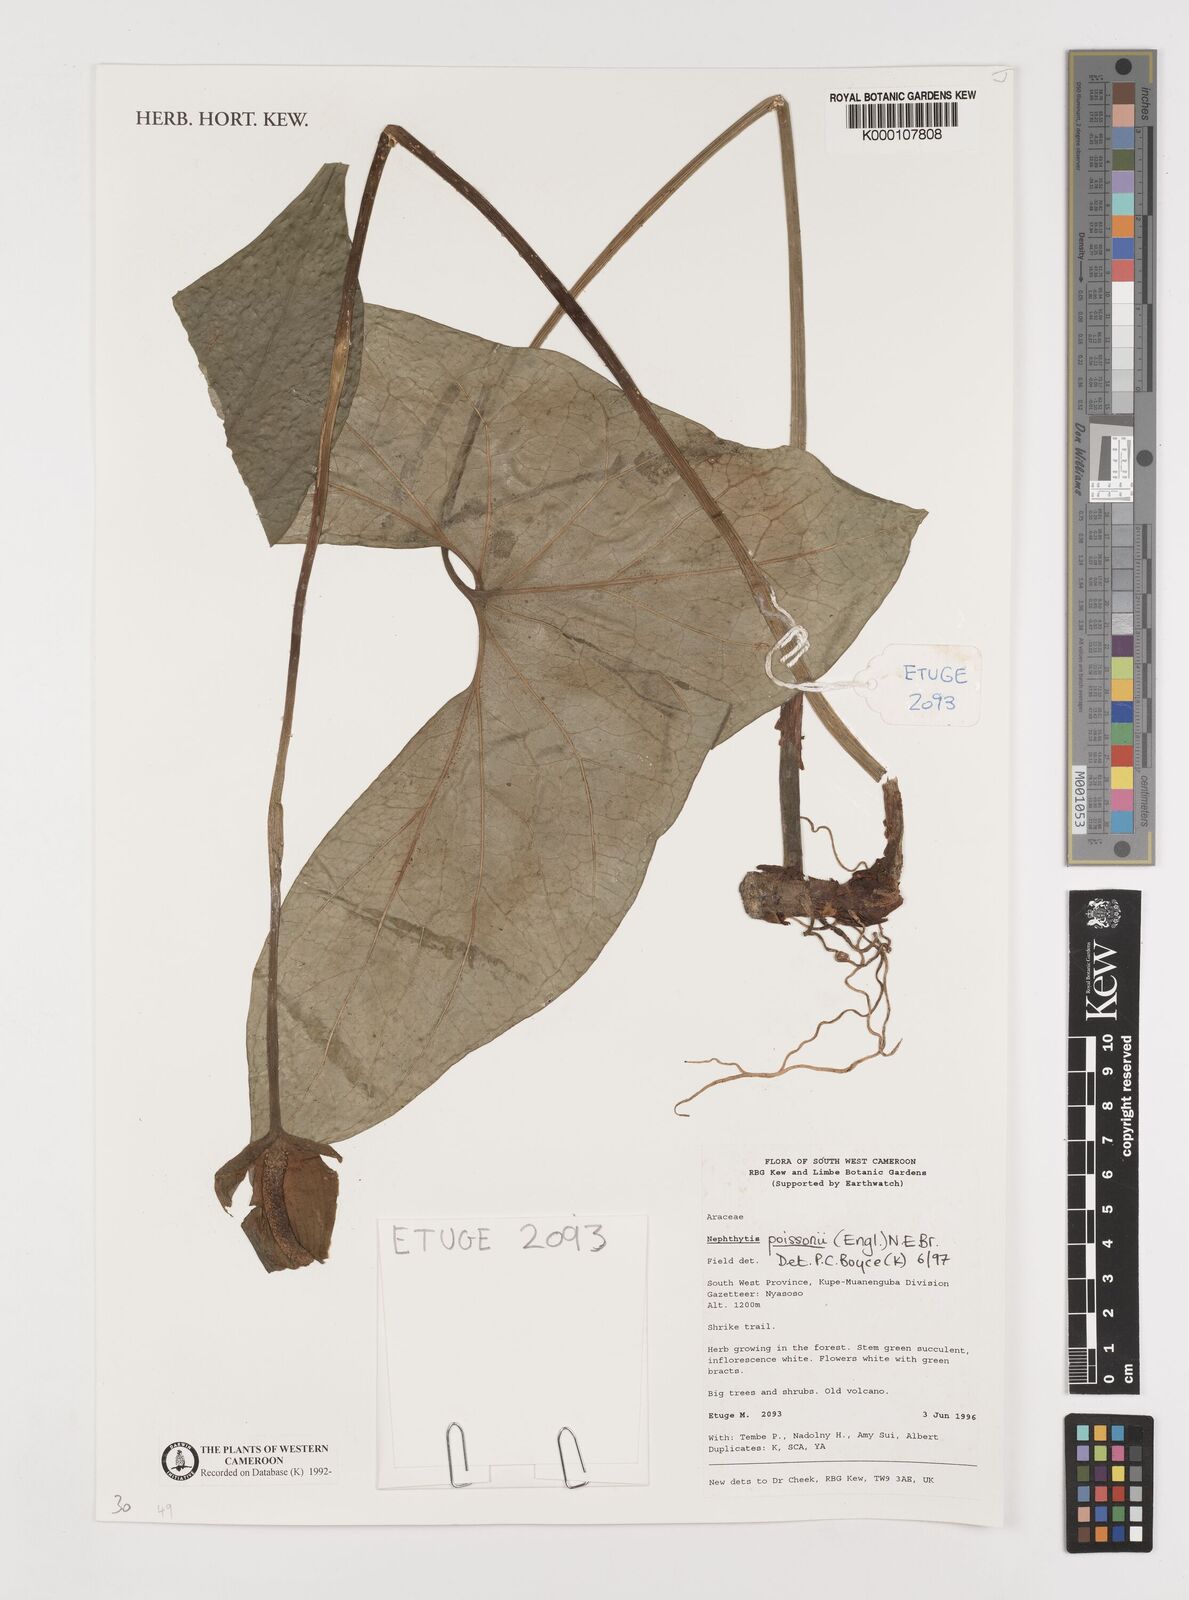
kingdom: Plantae
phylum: Tracheophyta
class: Liliopsida
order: Alismatales
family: Araceae
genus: Nephthytis
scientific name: Nephthytis poissonii
